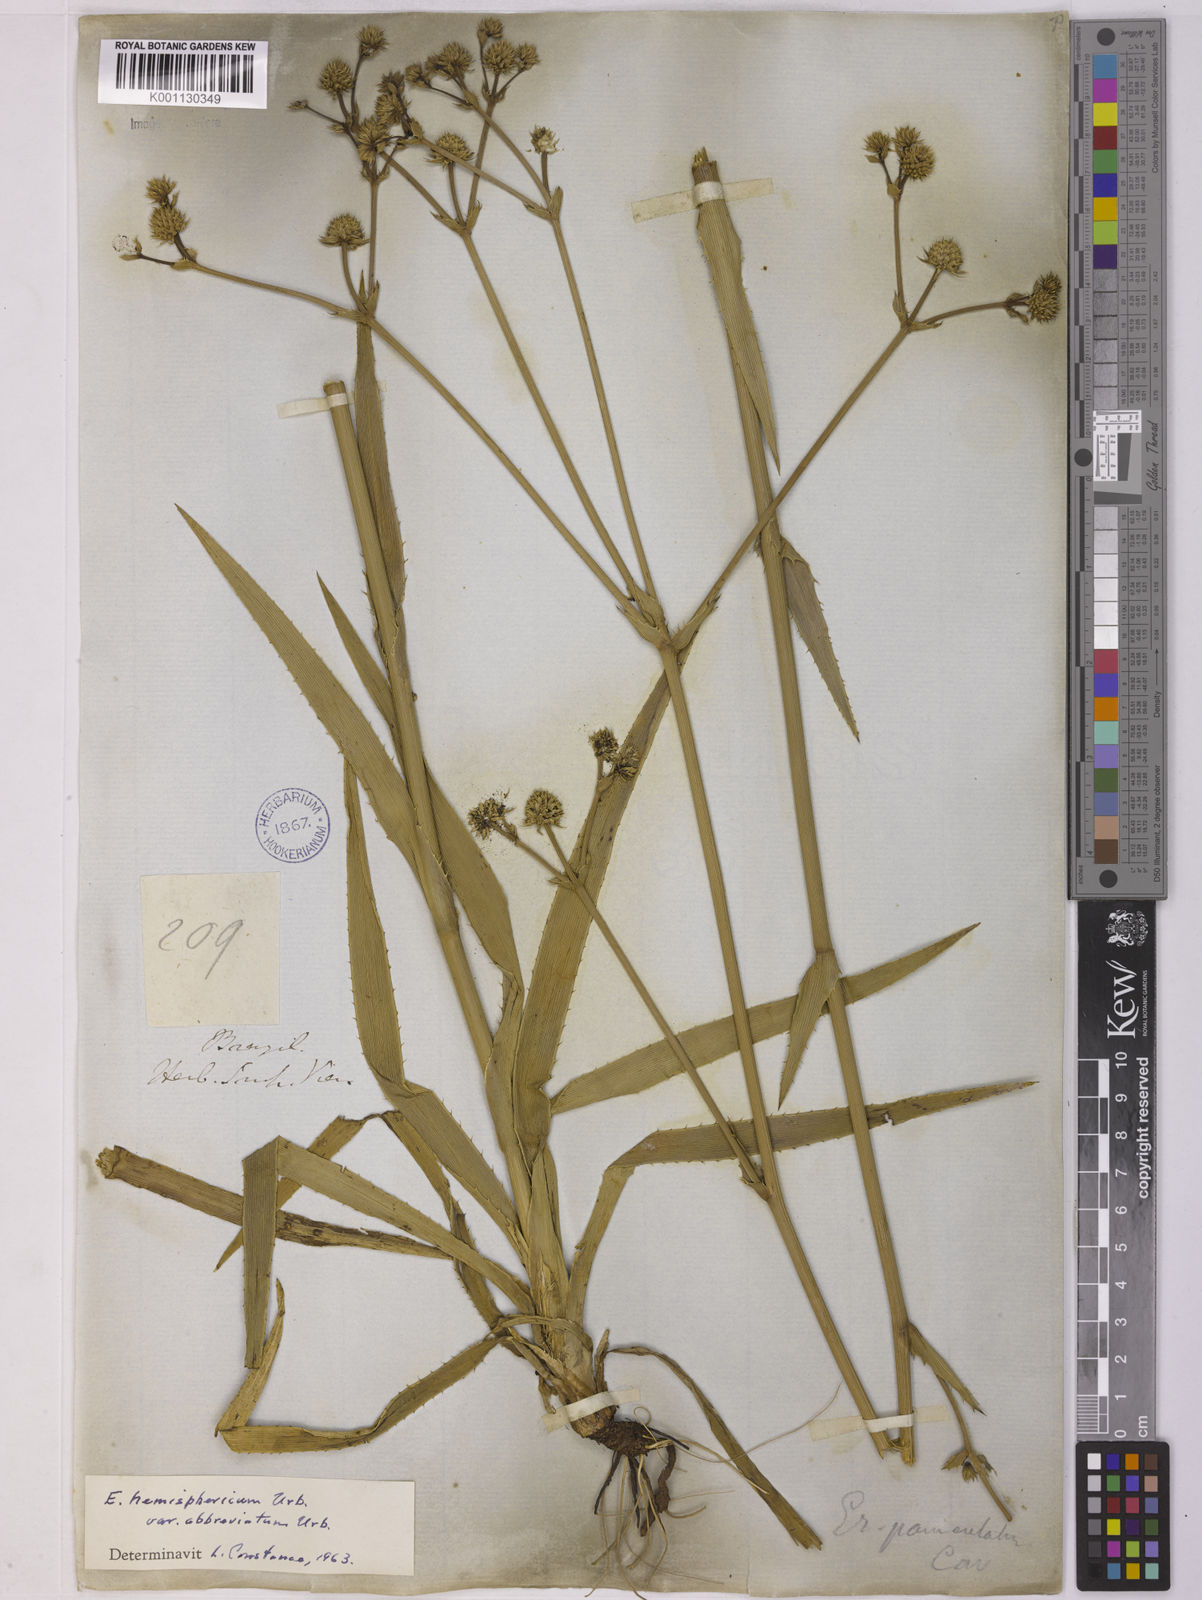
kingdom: Plantae
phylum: Tracheophyta
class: Magnoliopsida
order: Apiales
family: Apiaceae
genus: Eryngium
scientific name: Eryngium hemisphaericum
